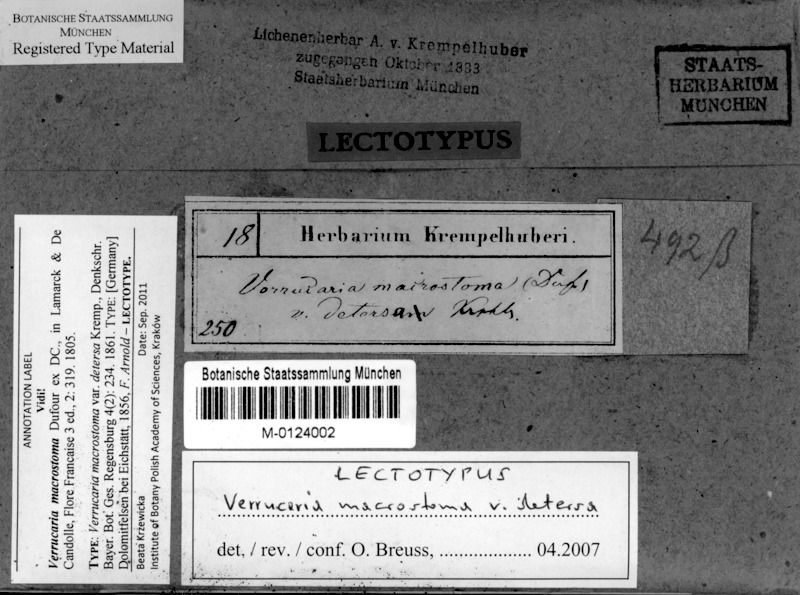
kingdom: Fungi
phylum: Ascomycota
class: Eurotiomycetes
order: Verrucariales
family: Verrucariaceae
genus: Verrucaria
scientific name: Verrucaria macrostoma
